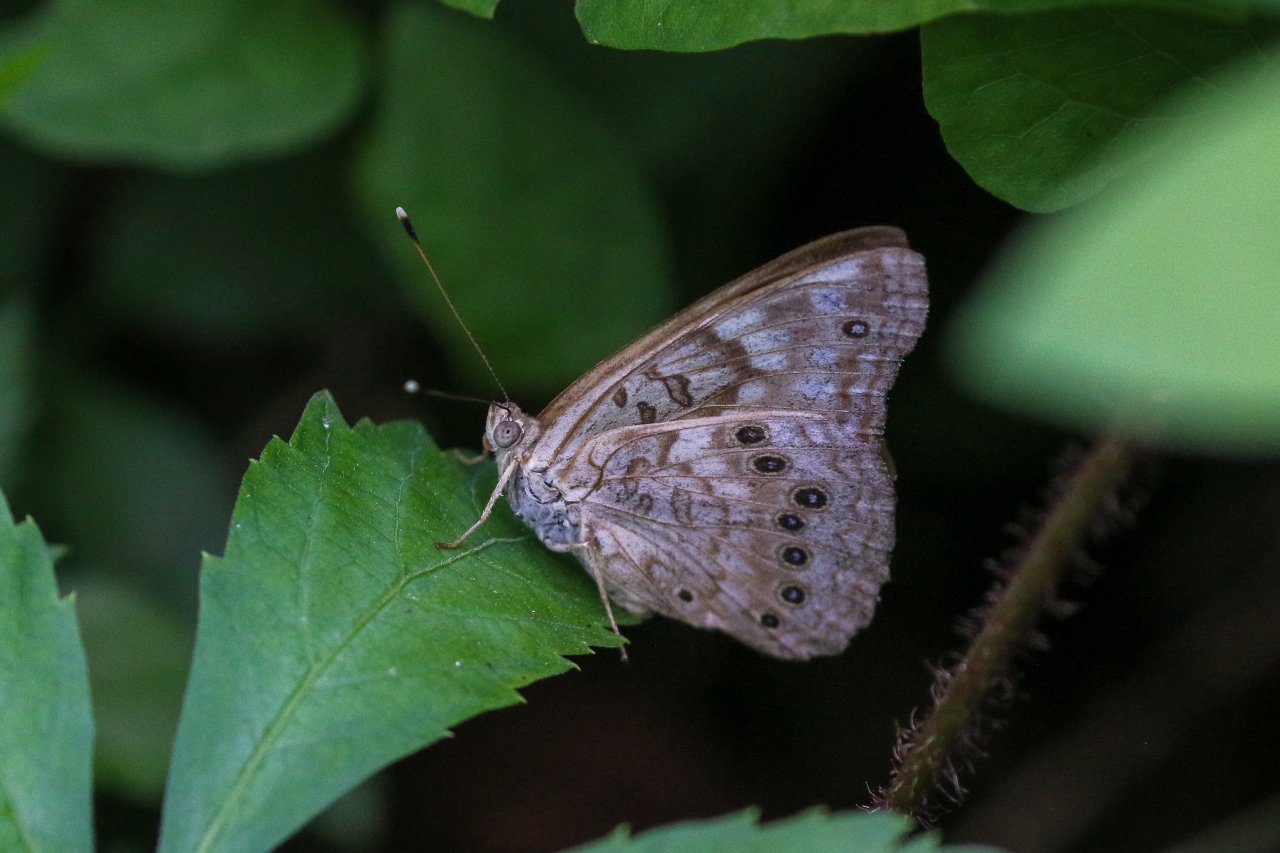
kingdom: Animalia
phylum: Arthropoda
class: Insecta
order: Lepidoptera
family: Nymphalidae
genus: Asterocampa
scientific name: Asterocampa celtis
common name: Hackberry Emperor
